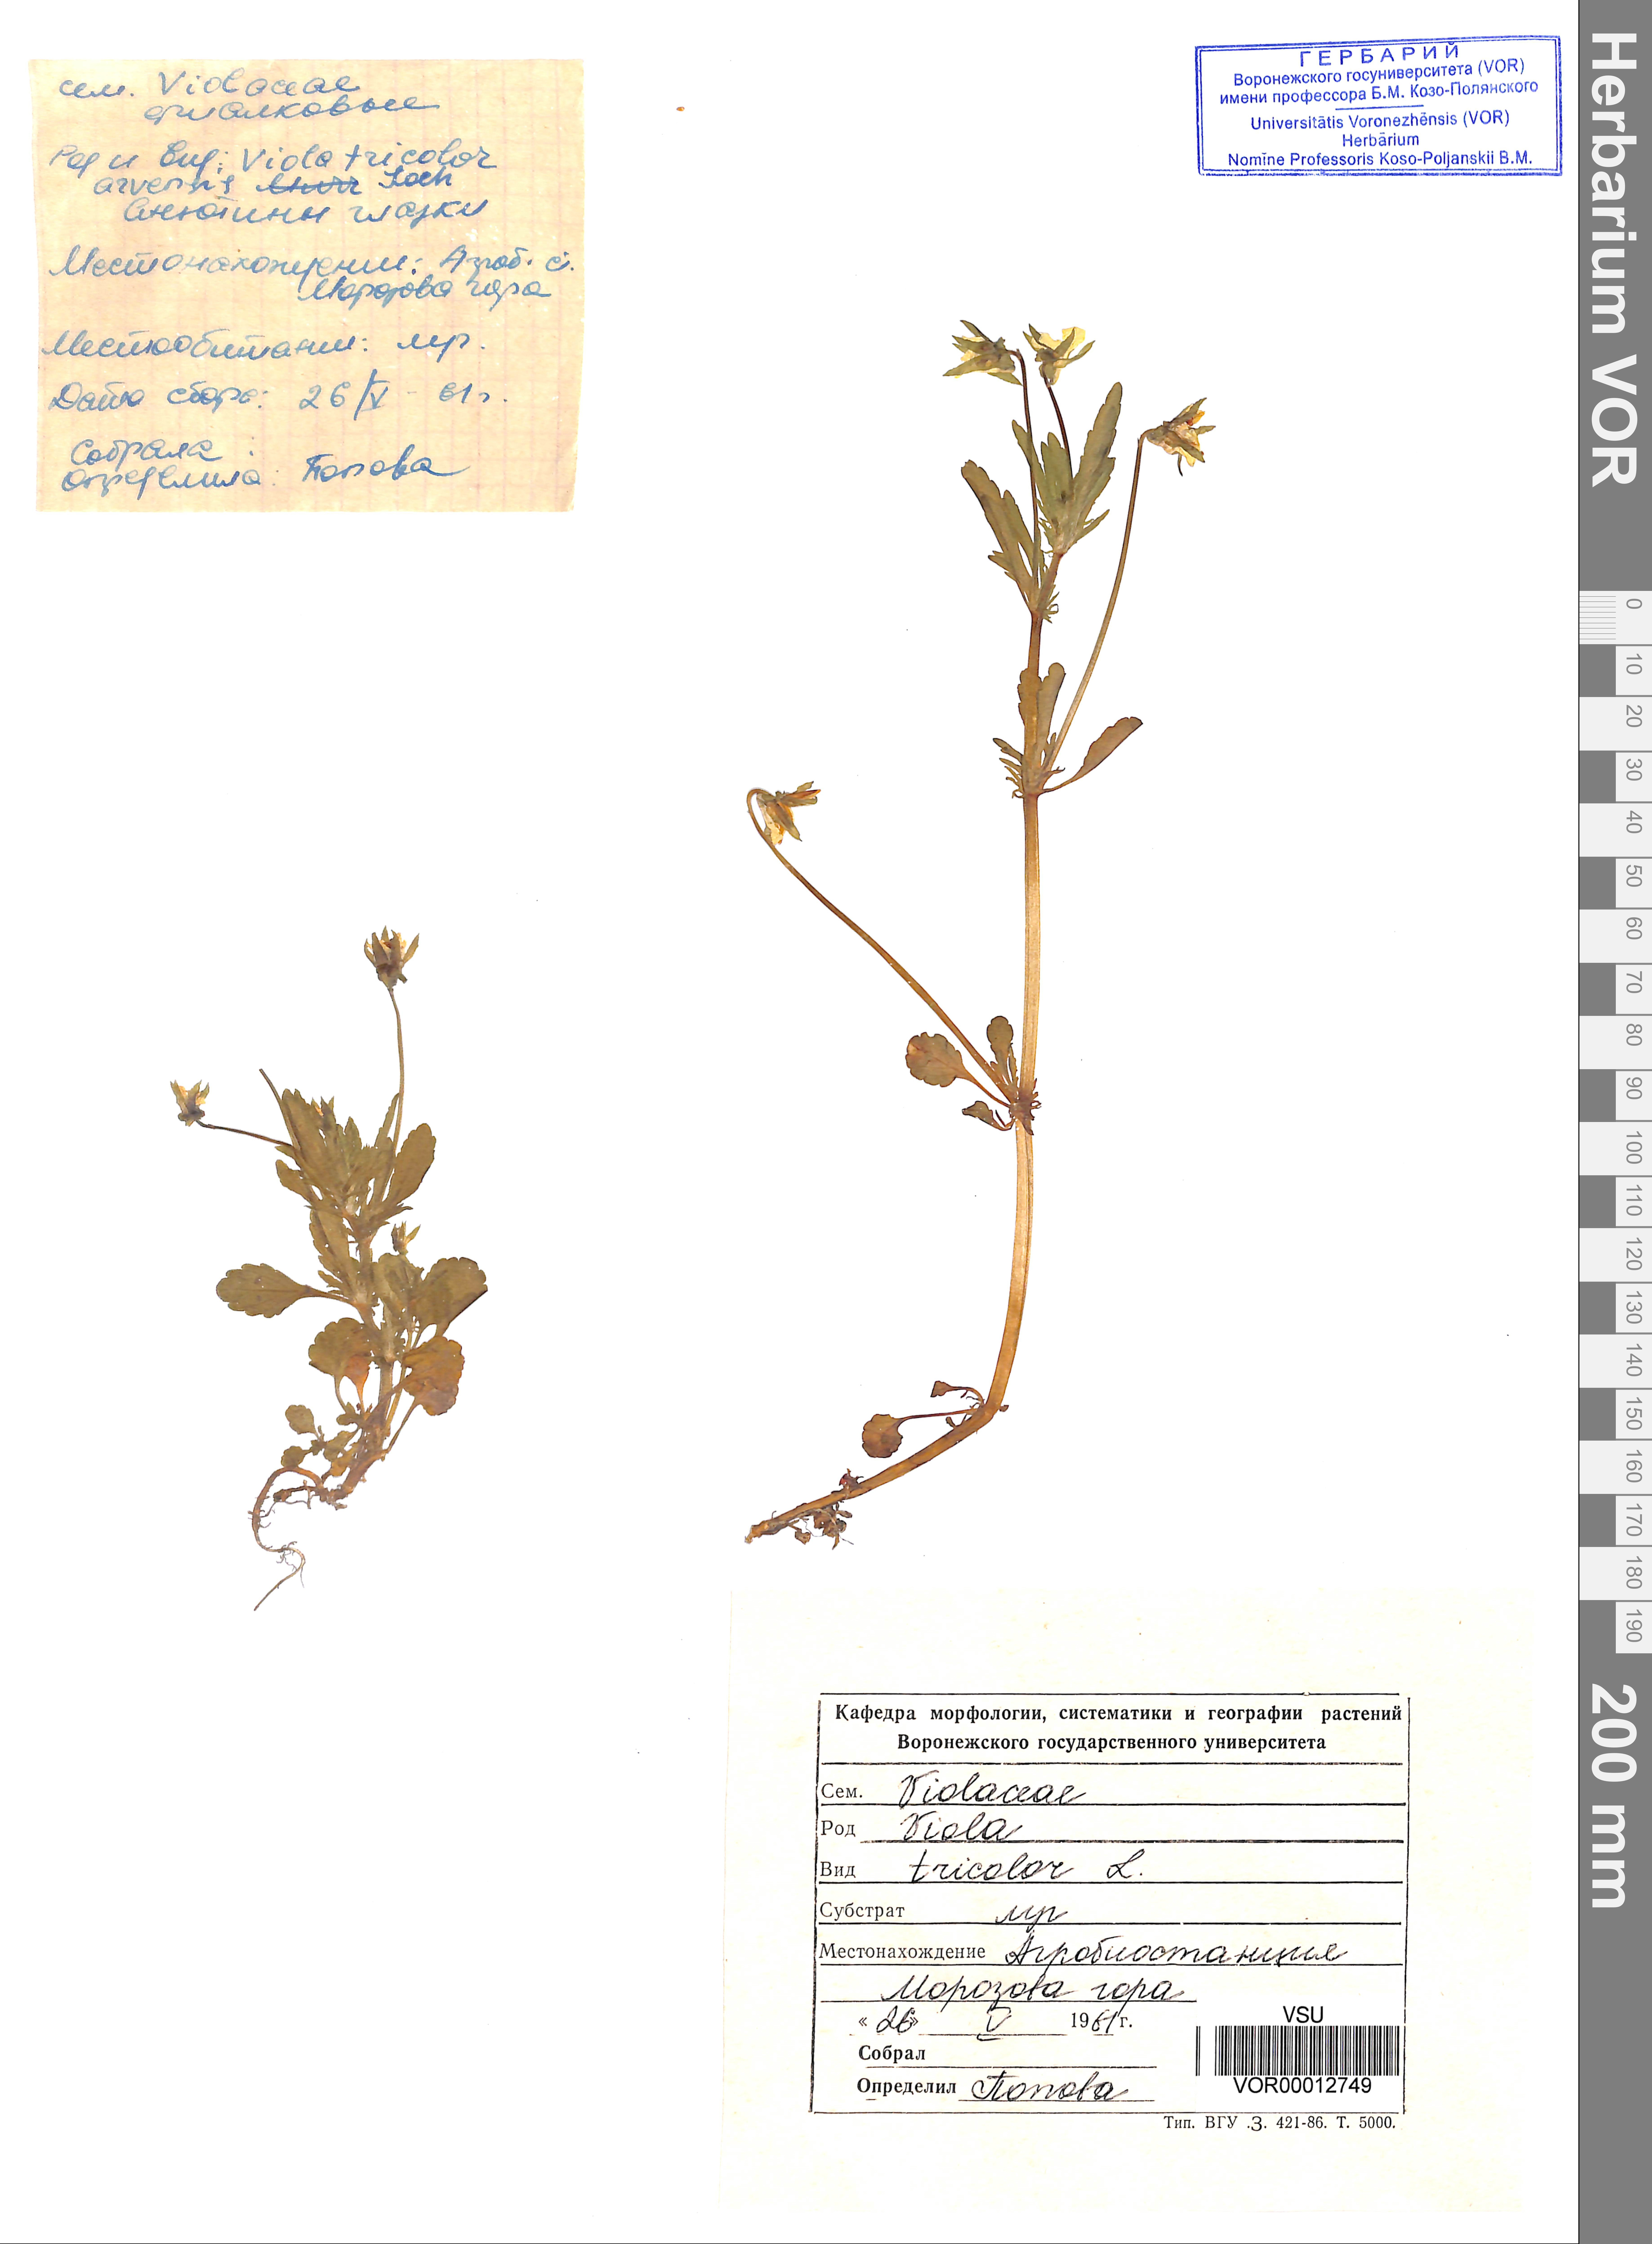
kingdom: Plantae
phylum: Tracheophyta
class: Magnoliopsida
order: Malpighiales
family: Violaceae
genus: Viola
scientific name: Viola tricolor
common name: Pansy
